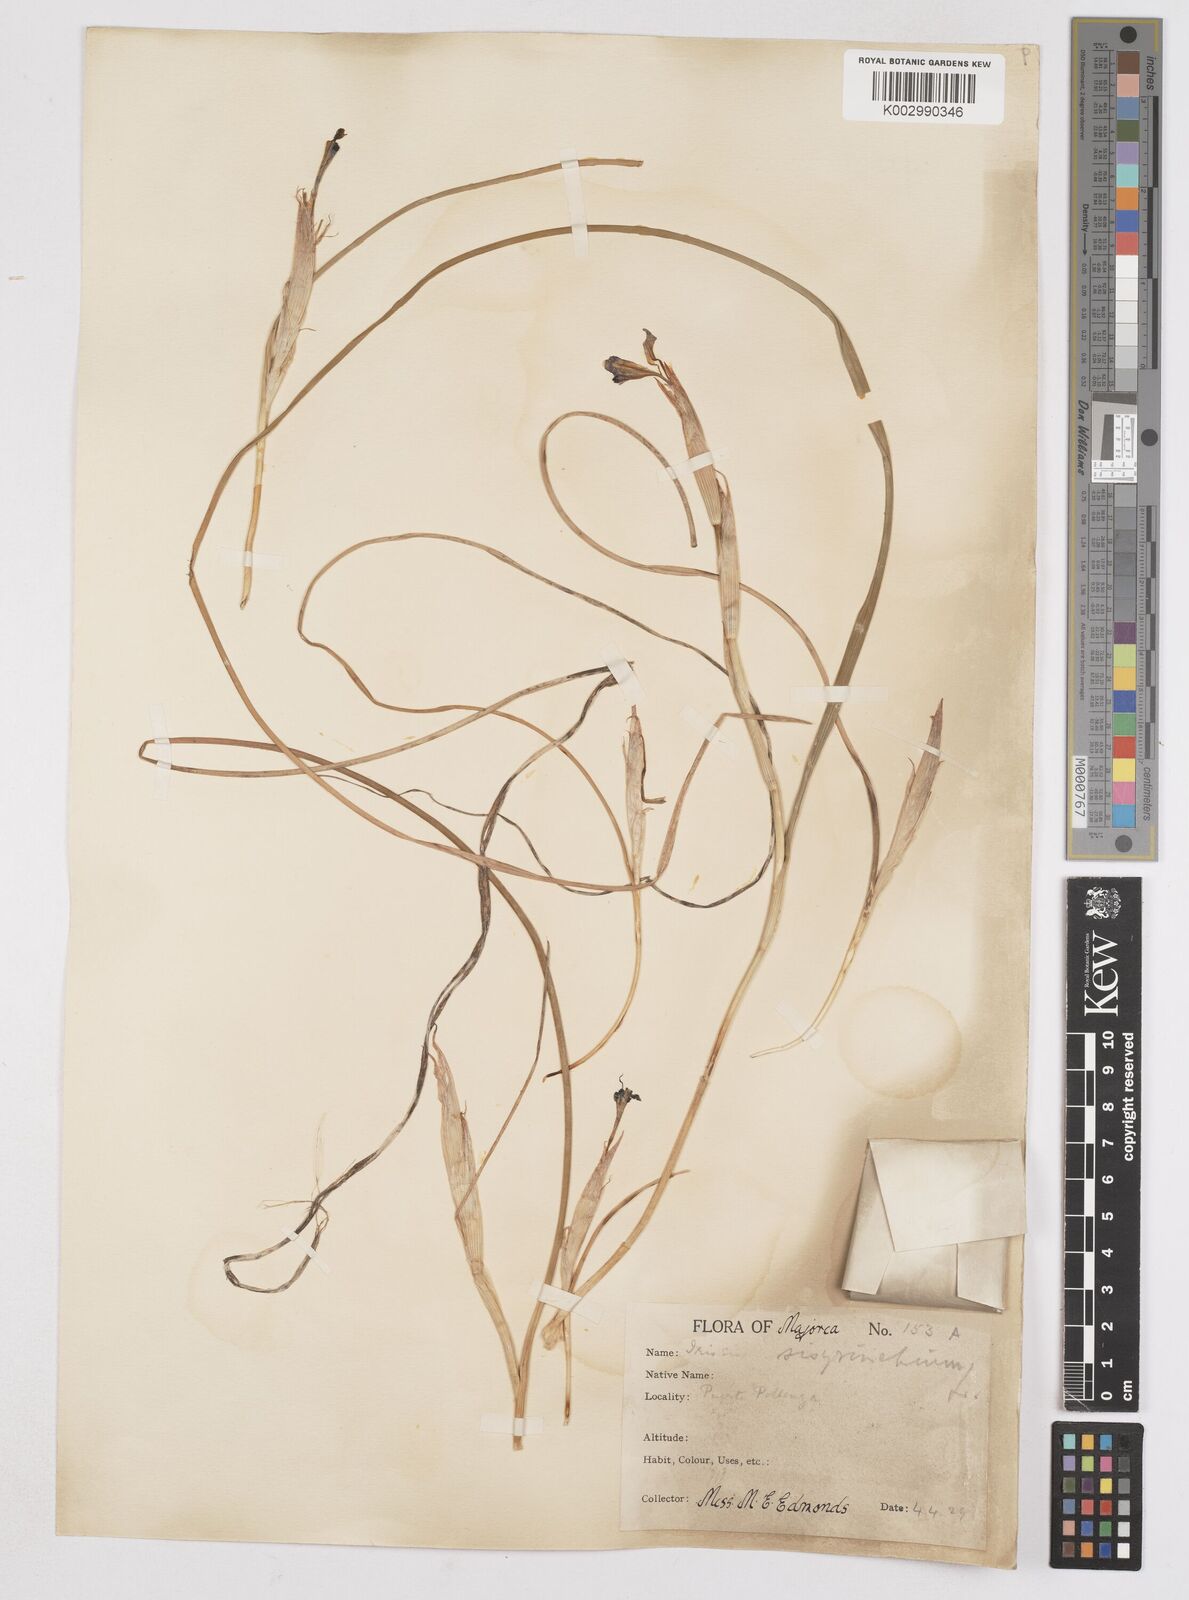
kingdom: Plantae
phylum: Tracheophyta
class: Liliopsida
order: Asparagales
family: Iridaceae
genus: Moraea
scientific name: Moraea sisyrinchium
